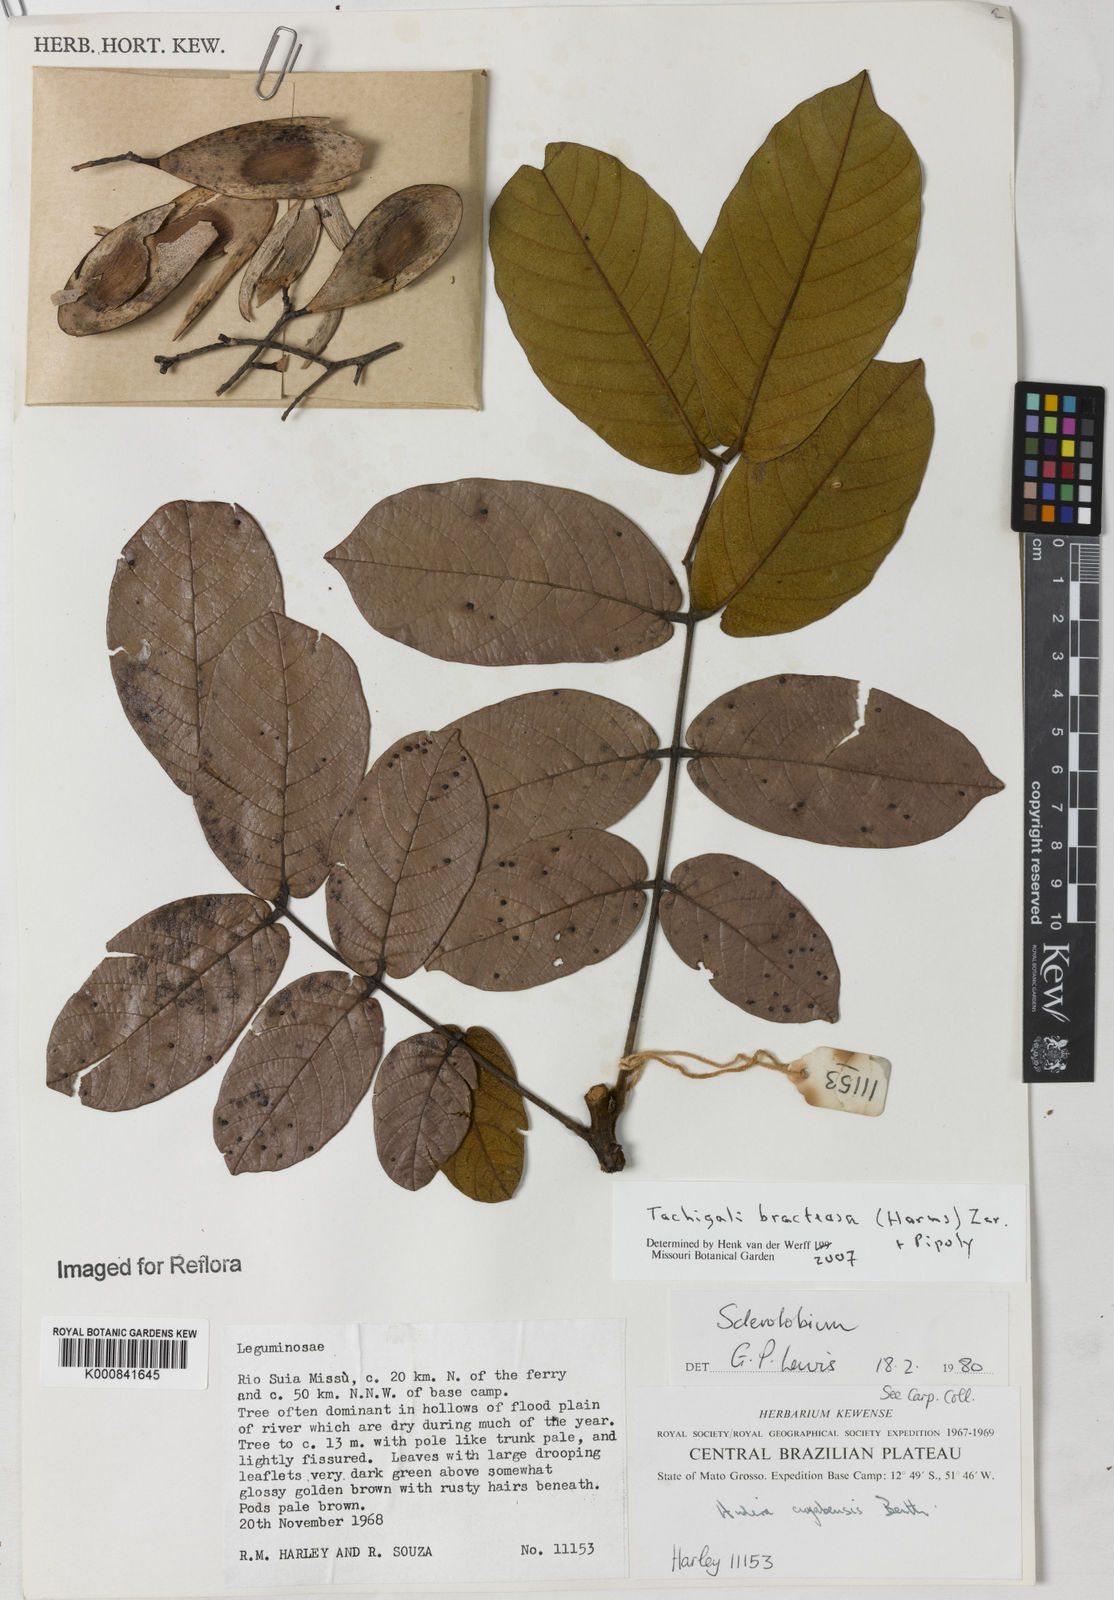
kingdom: Plantae
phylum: Tracheophyta
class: Magnoliopsida
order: Fabales
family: Fabaceae
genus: Tachigali
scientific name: Tachigali bracteosa
